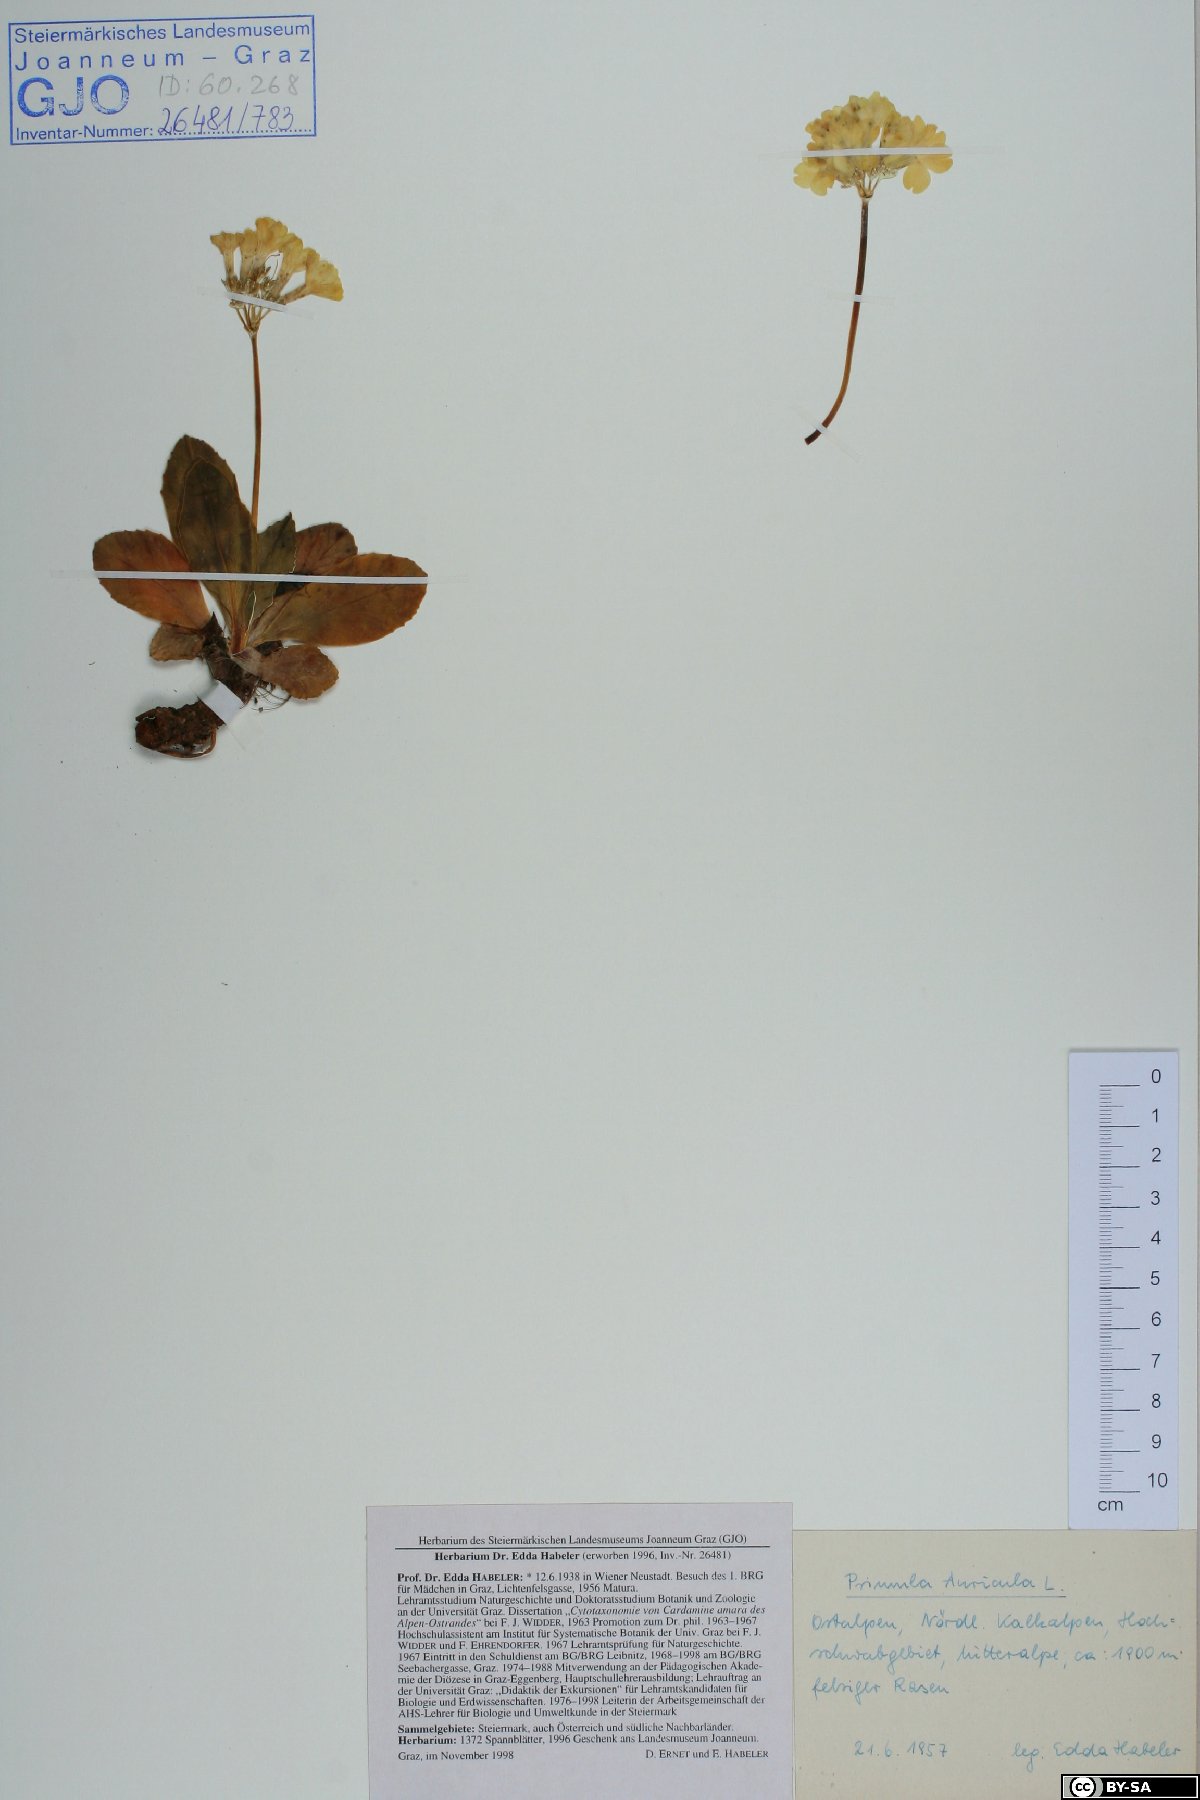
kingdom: Plantae
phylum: Tracheophyta
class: Magnoliopsida
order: Ericales
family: Primulaceae
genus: Primula
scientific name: Primula auricula
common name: Auricula
